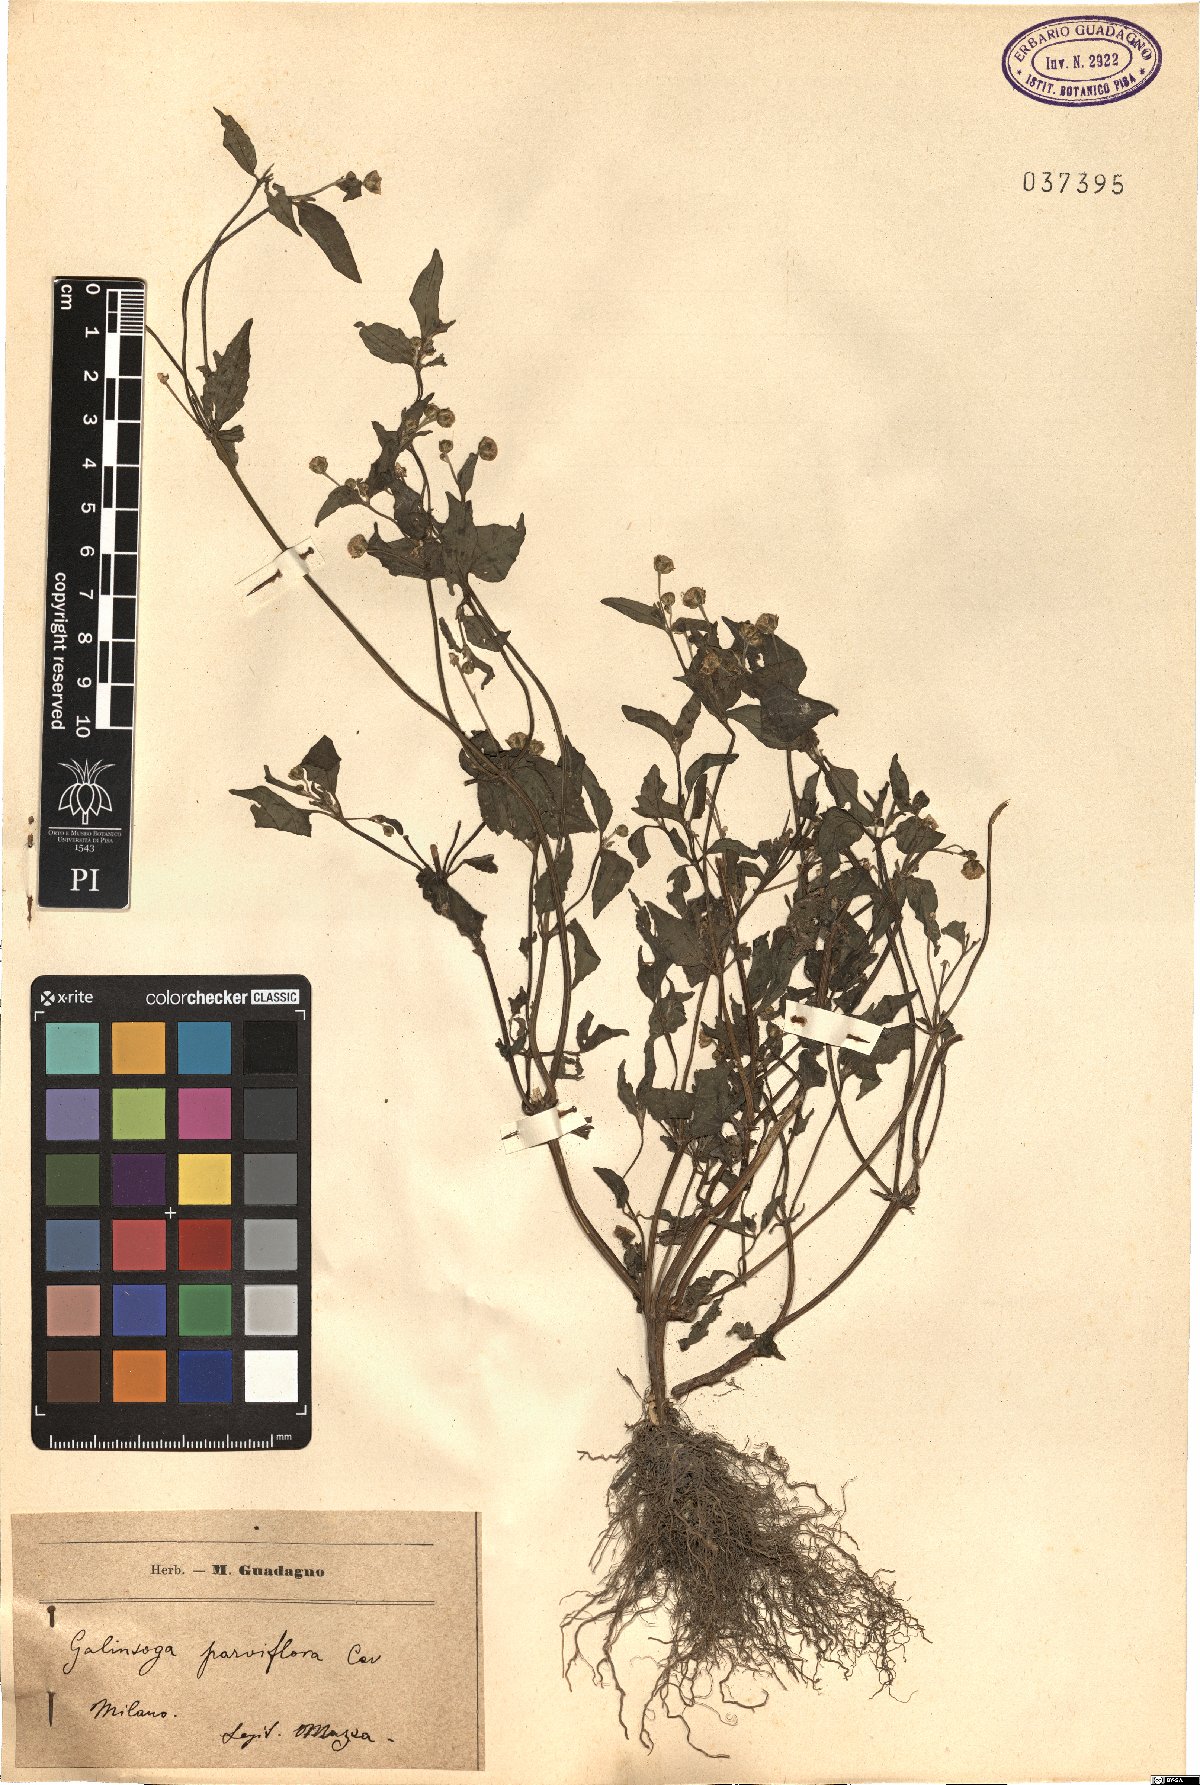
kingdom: Plantae
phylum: Tracheophyta
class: Magnoliopsida
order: Asterales
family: Asteraceae
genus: Galinsoga
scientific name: Galinsoga parviflora
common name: Gallant soldier
